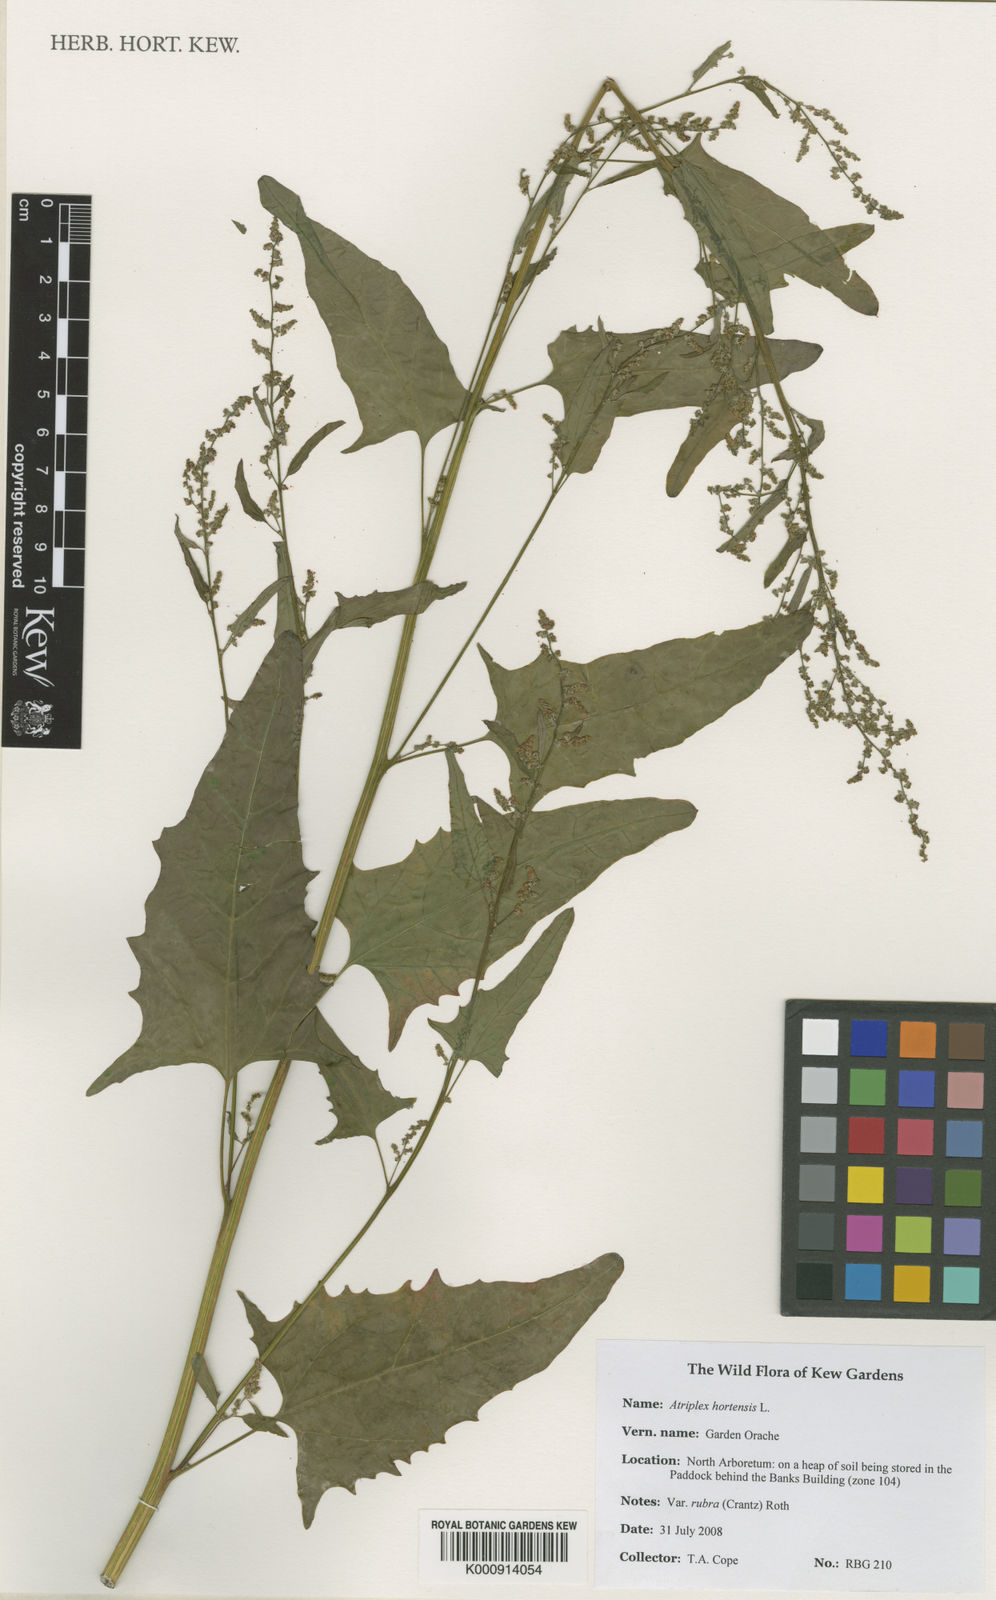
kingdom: Plantae
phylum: Tracheophyta
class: Magnoliopsida
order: Caryophyllales
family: Amaranthaceae
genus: Atriplex
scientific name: Atriplex hortensis
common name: Garden orache
